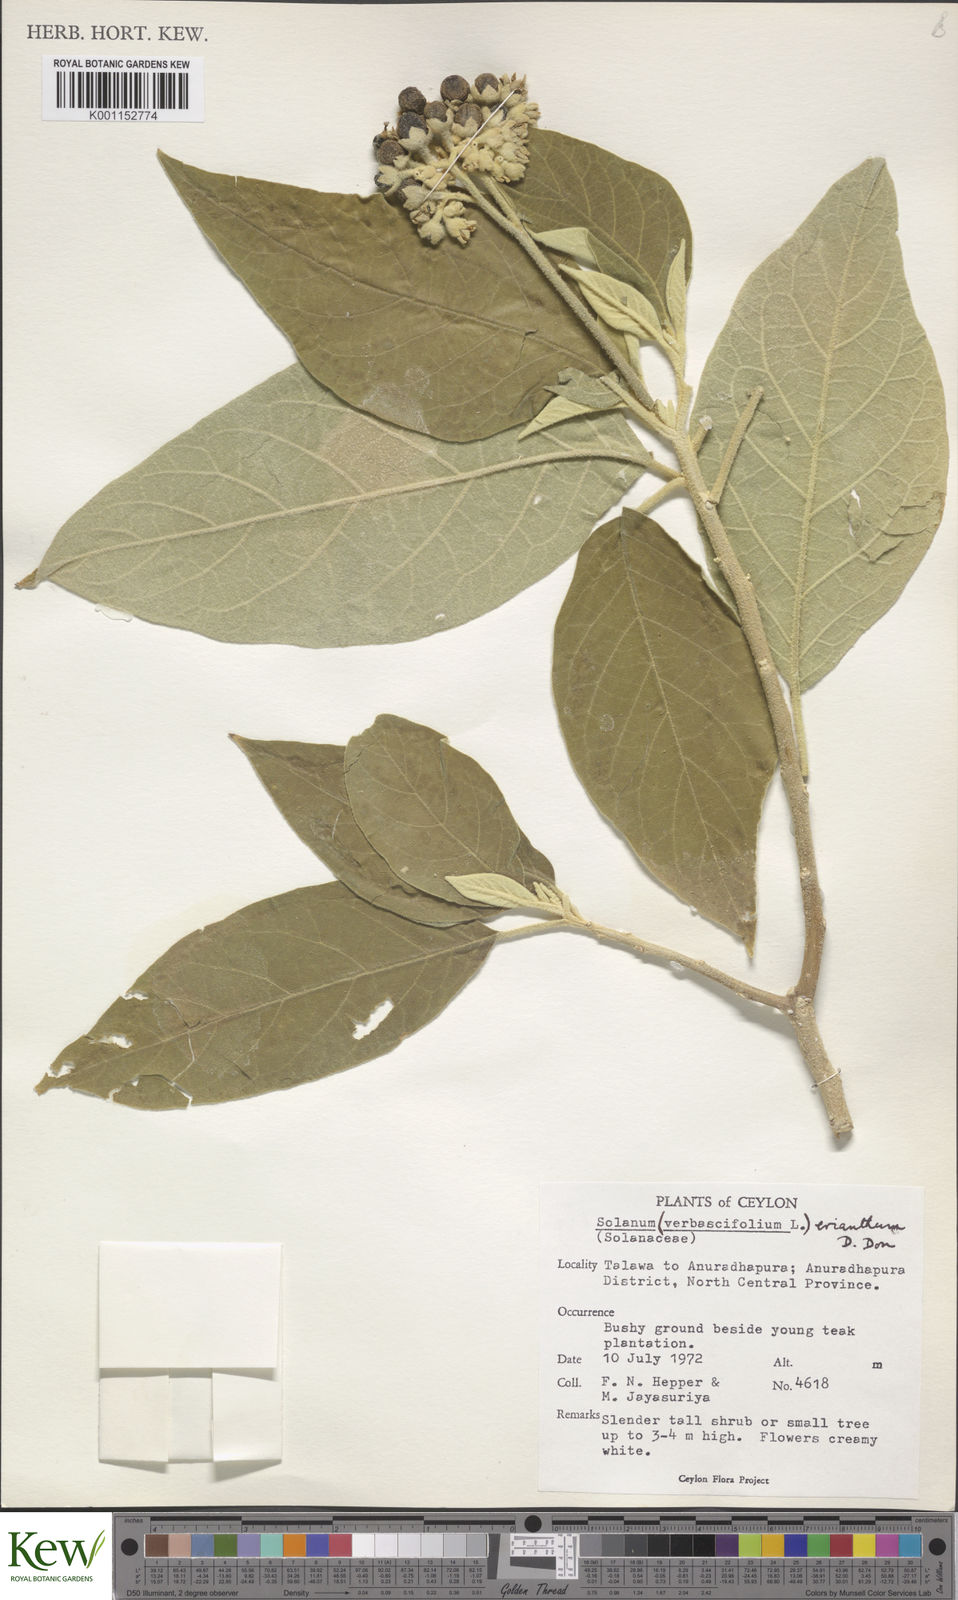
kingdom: Plantae
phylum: Tracheophyta
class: Magnoliopsida
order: Solanales
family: Solanaceae
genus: Solanum
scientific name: Solanum erianthum
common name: Tobacco-tree
